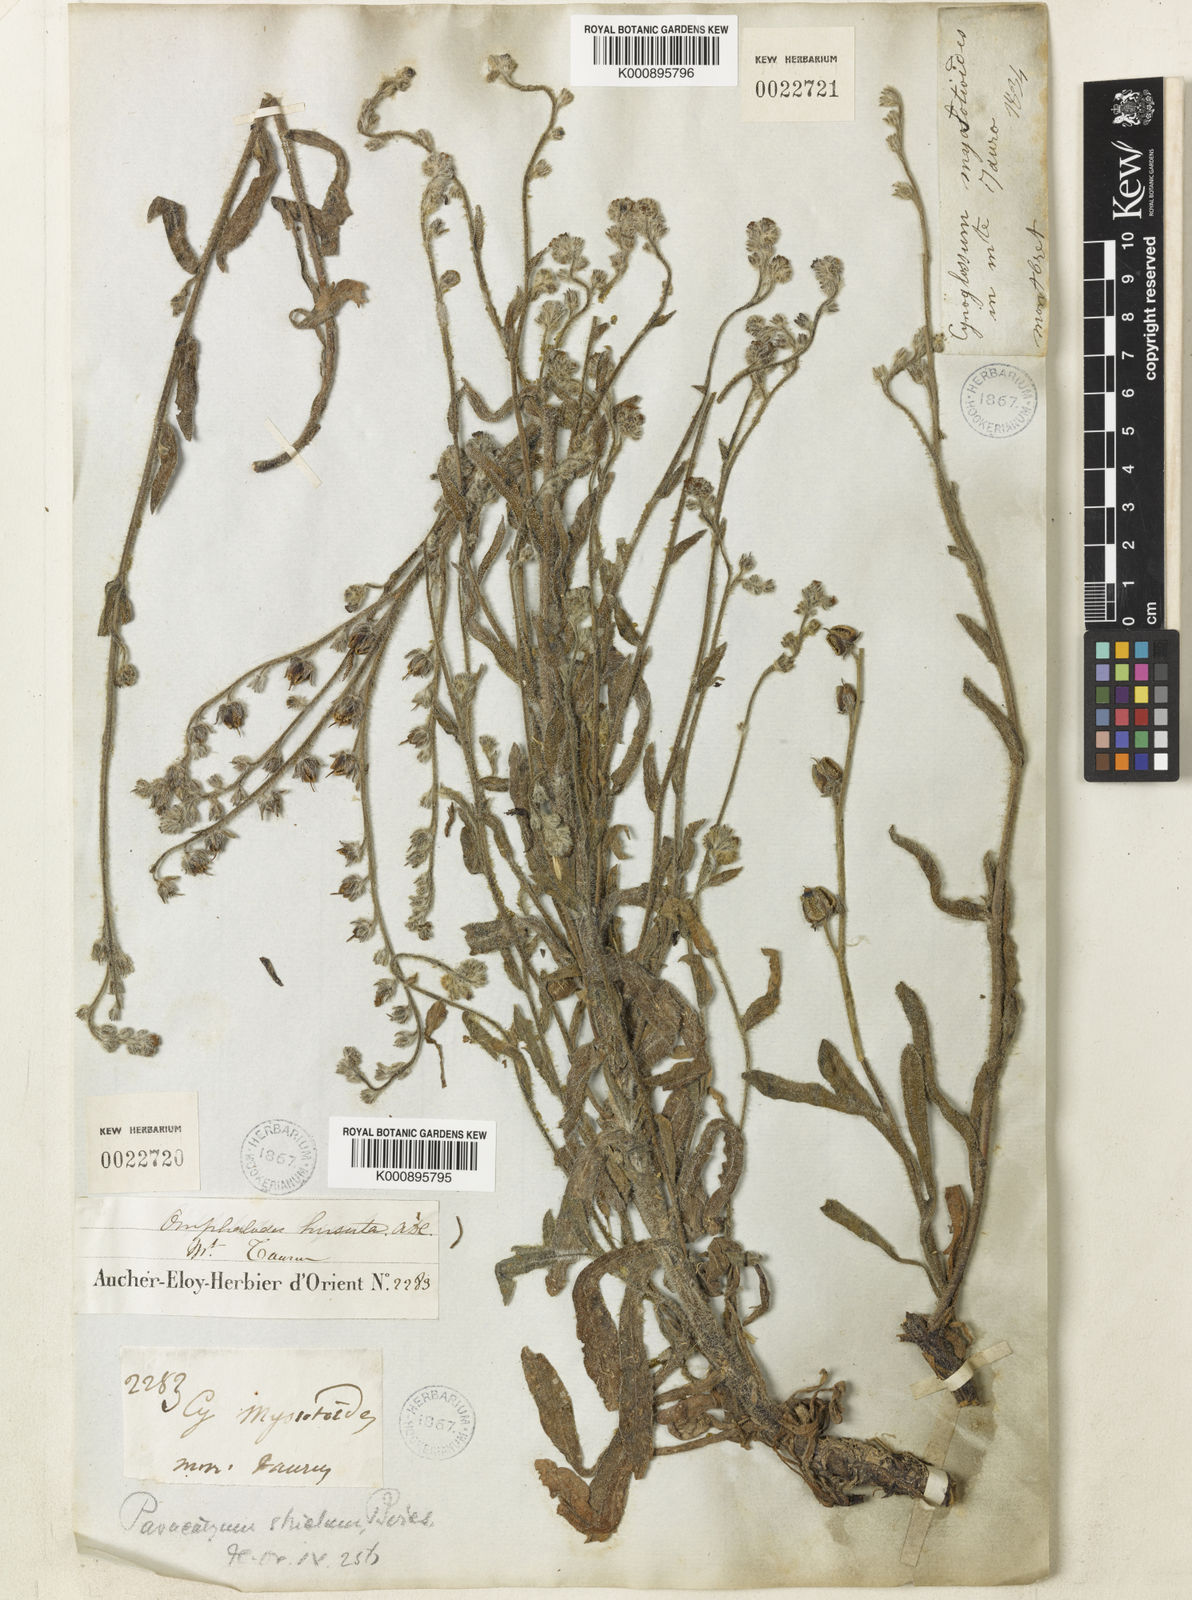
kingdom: Plantae
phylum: Tracheophyta
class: Magnoliopsida
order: Boraginales
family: Boraginaceae
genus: Paracaryum
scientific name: Paracaryum strictum
